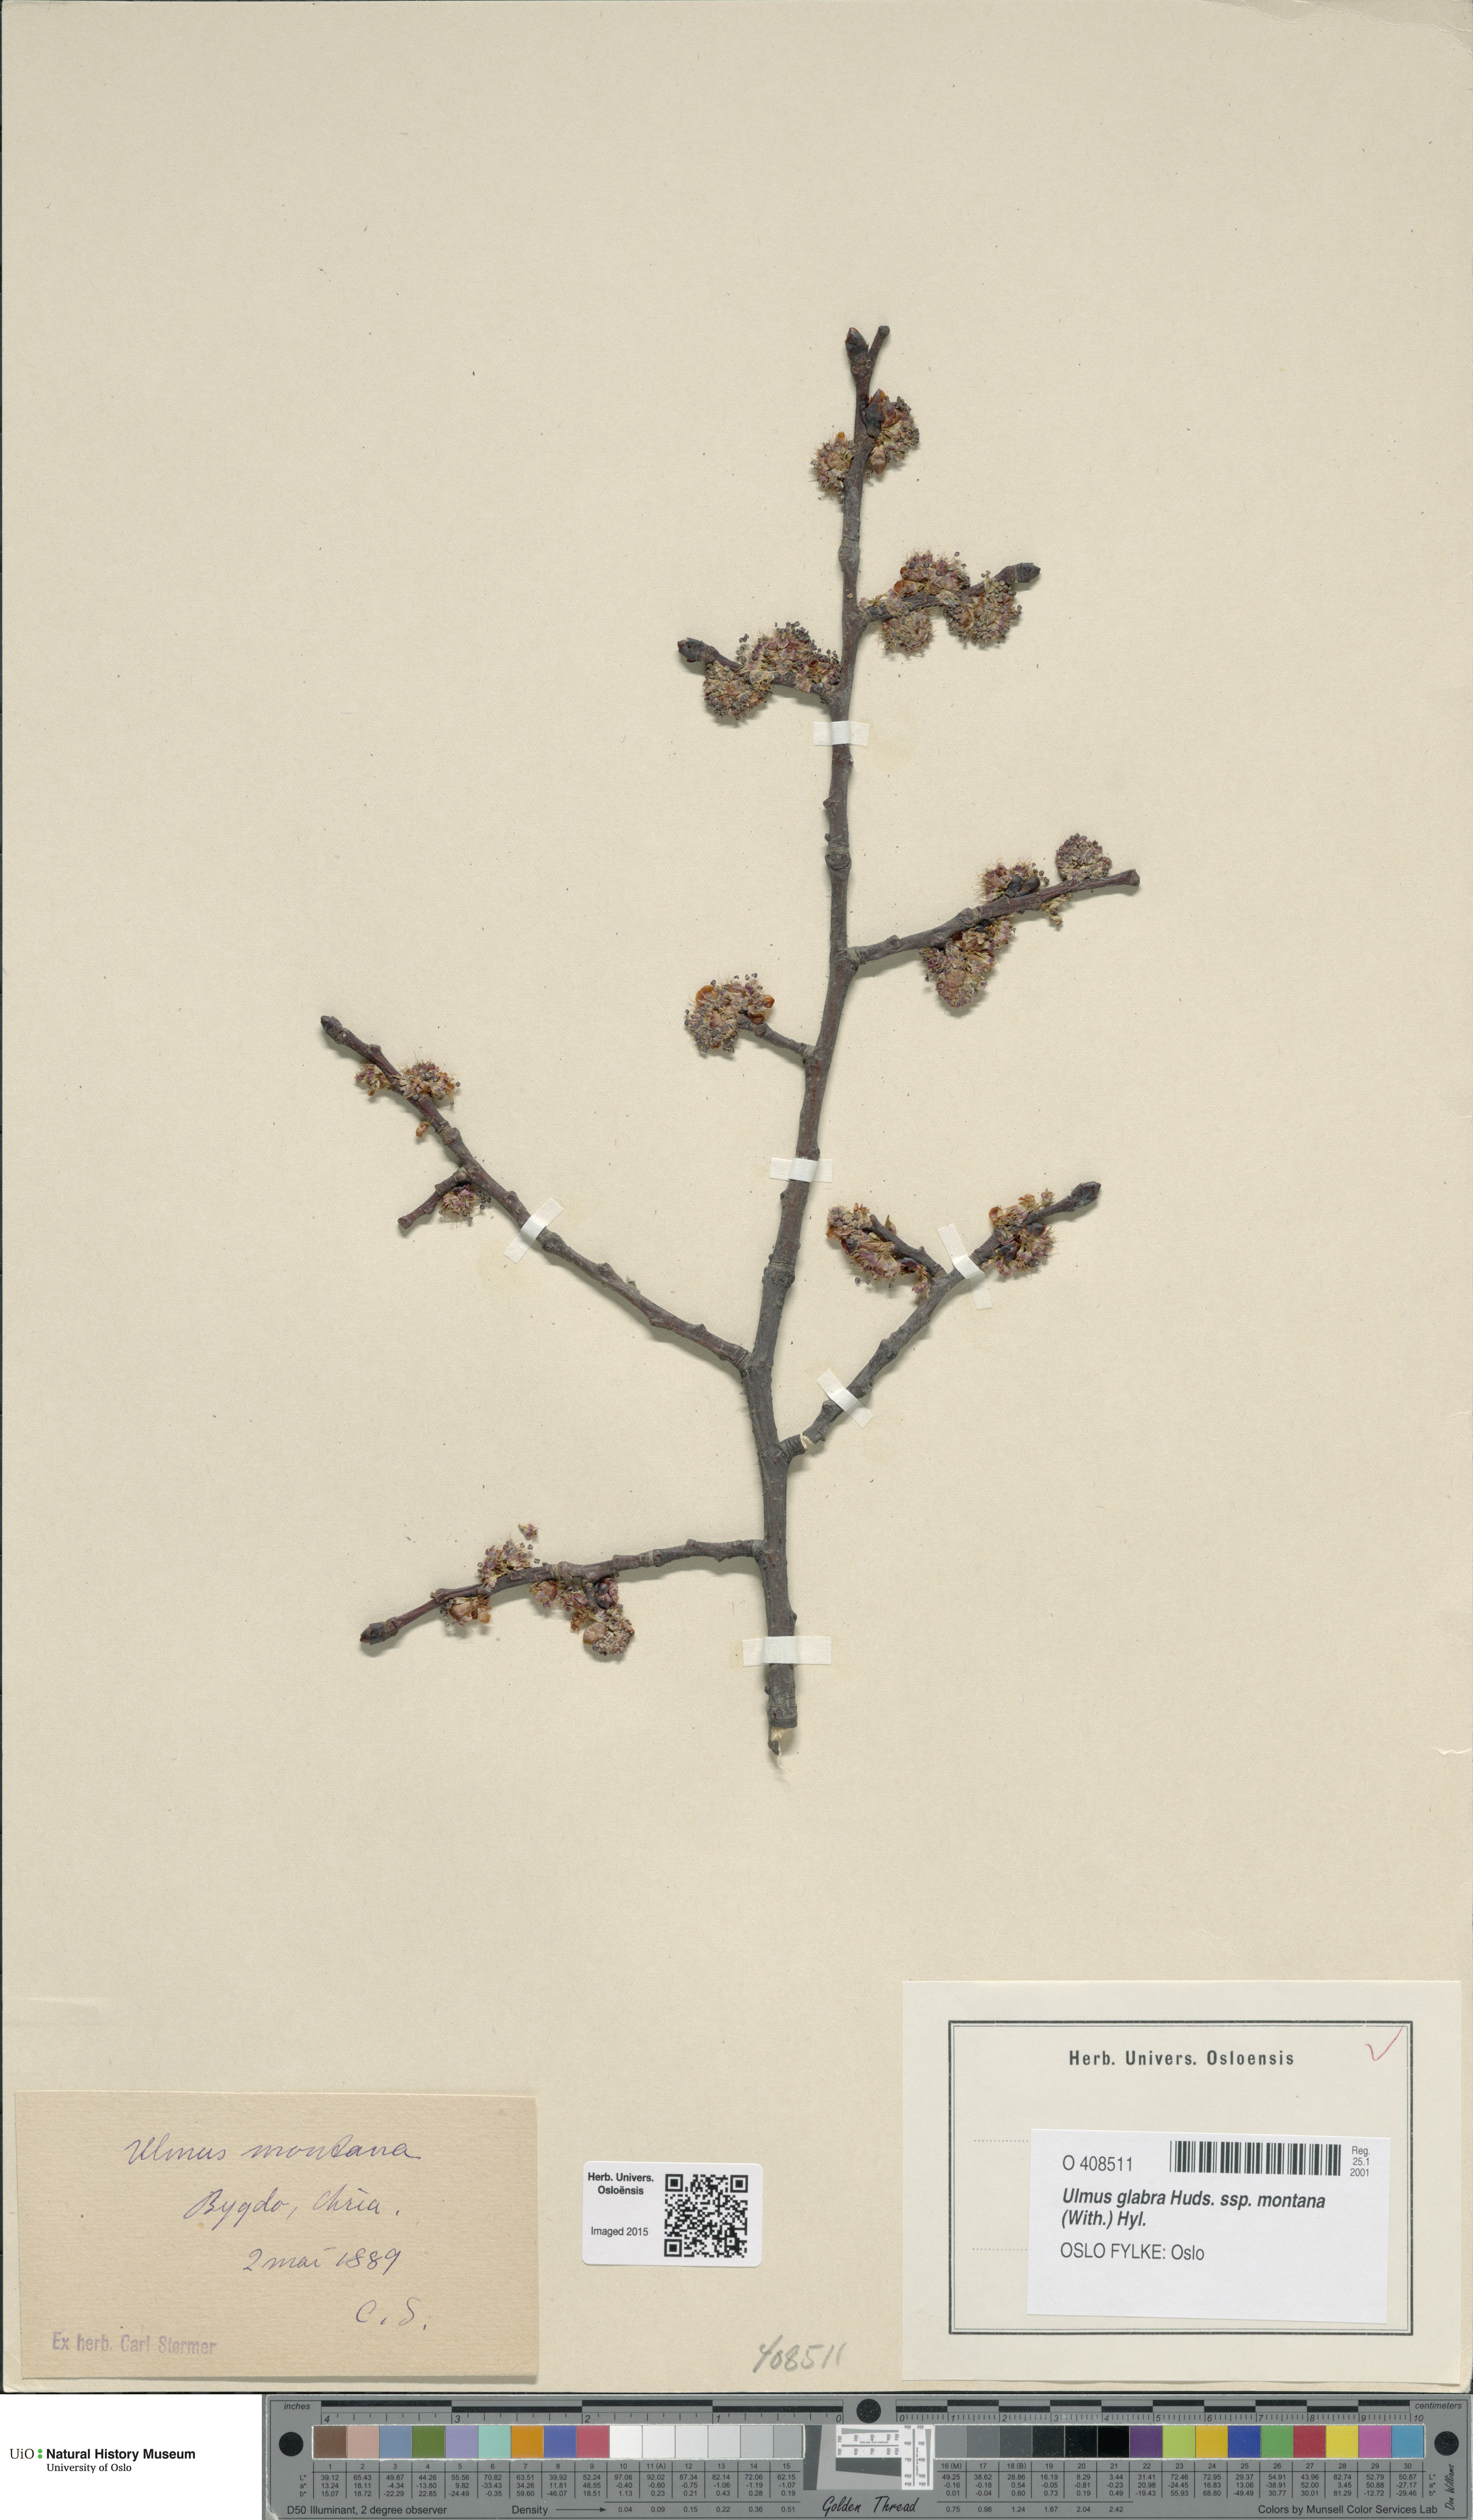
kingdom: Plantae
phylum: Tracheophyta
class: Magnoliopsida
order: Rosales
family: Ulmaceae
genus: Ulmus
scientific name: Ulmus glabra
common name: Wych elm
